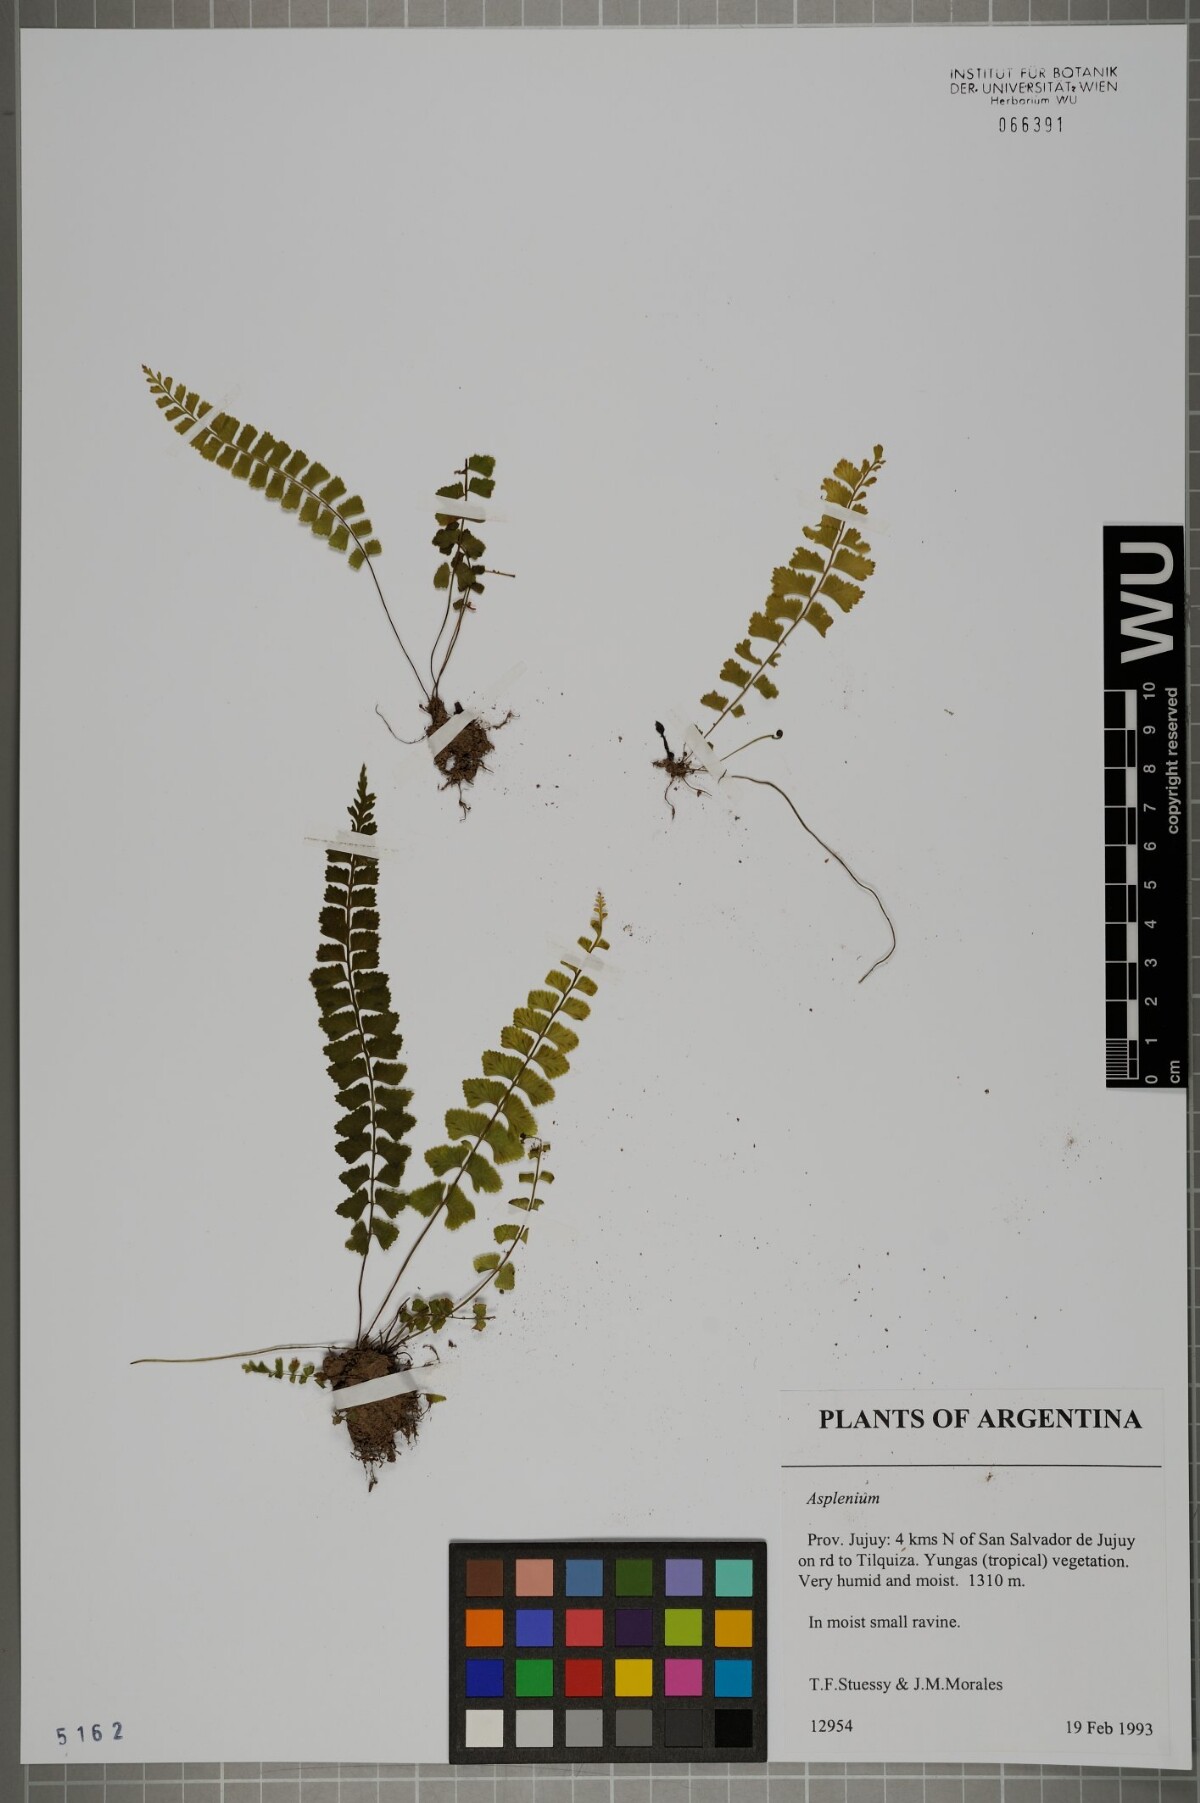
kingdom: Plantae
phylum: Tracheophyta
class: Polypodiopsida
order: Polypodiales
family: Aspleniaceae
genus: Asplenium
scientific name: Asplenium
